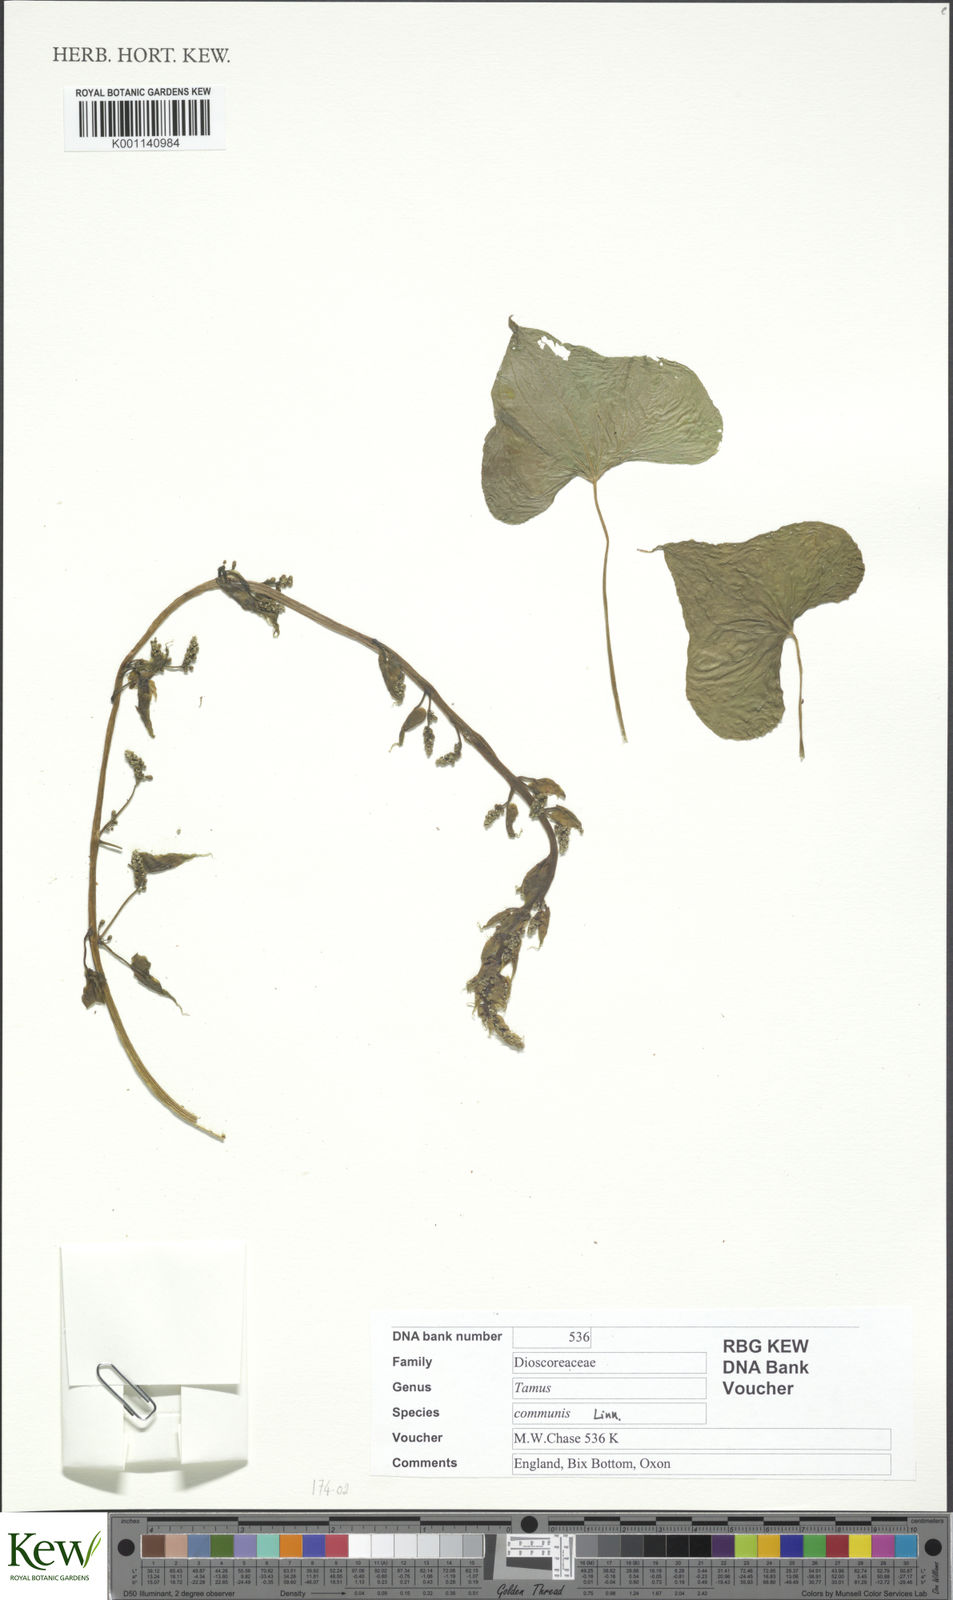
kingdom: Plantae
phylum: Tracheophyta
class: Liliopsida
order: Dioscoreales
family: Dioscoreaceae
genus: Dioscorea
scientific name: Dioscorea communis
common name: Black-bindweed
